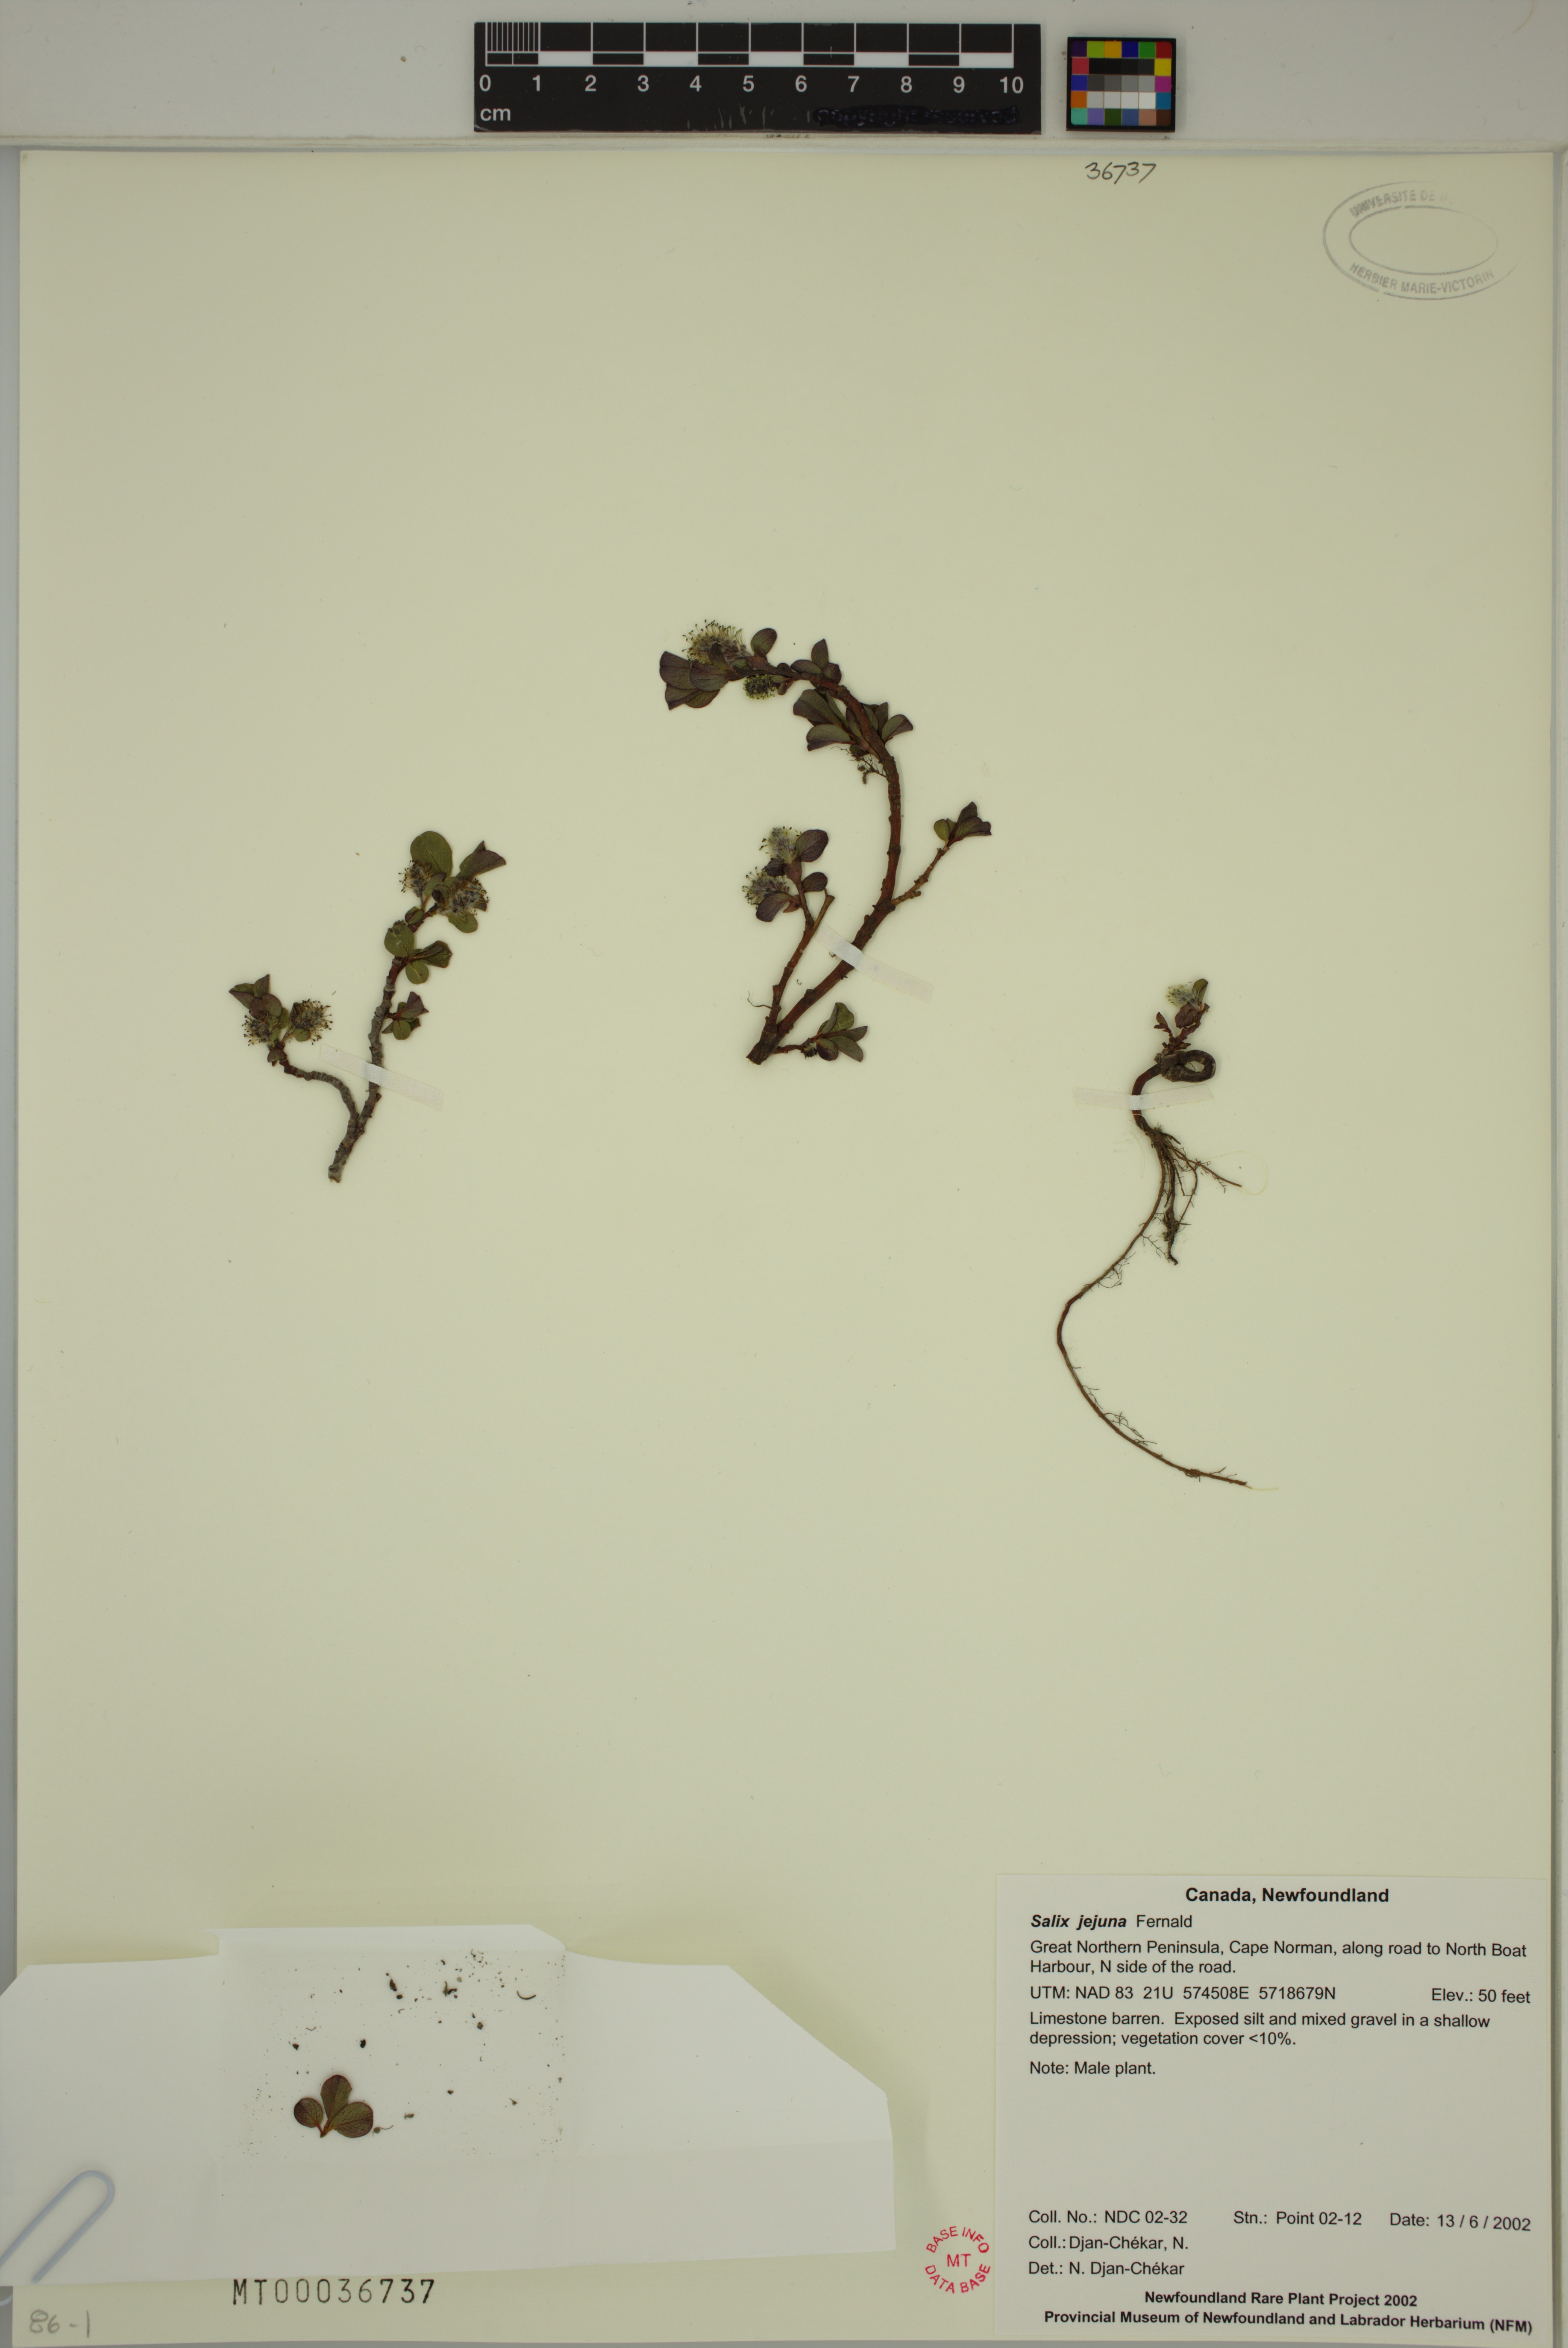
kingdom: Plantae
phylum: Tracheophyta
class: Magnoliopsida
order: Malpighiales
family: Salicaceae
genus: Salix
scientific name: Salix jejuna
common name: Belle isle dwarf willow
